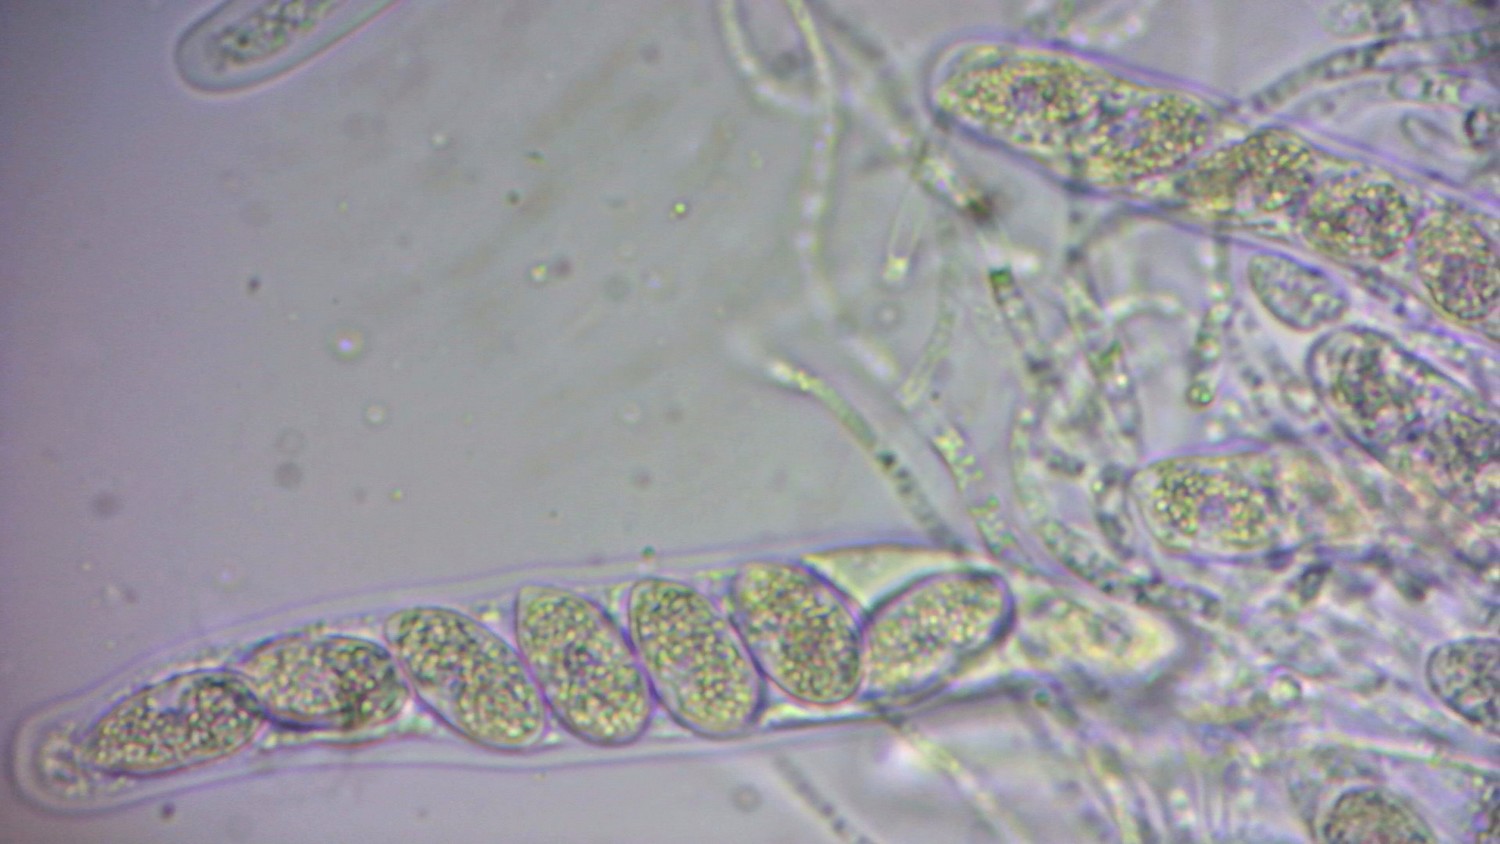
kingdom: Fungi
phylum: Ascomycota
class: Sordariomycetes
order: Phyllachorales
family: Phyllachoraceae
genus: Phyllachora
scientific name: Phyllachora dactylidis
